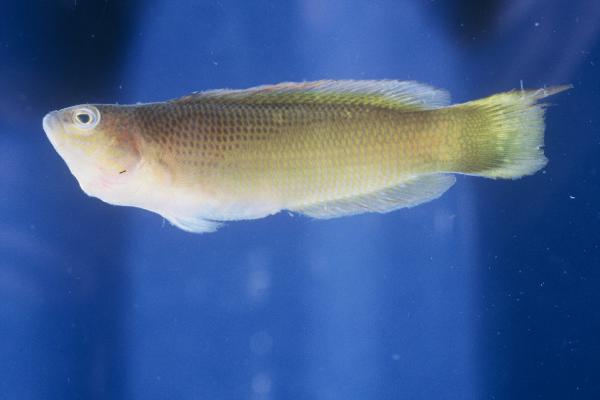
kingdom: Animalia
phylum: Chordata
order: Perciformes
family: Pseudochromidae
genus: Pseudochromis
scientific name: Pseudochromis natalensis
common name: Natal dottyback
